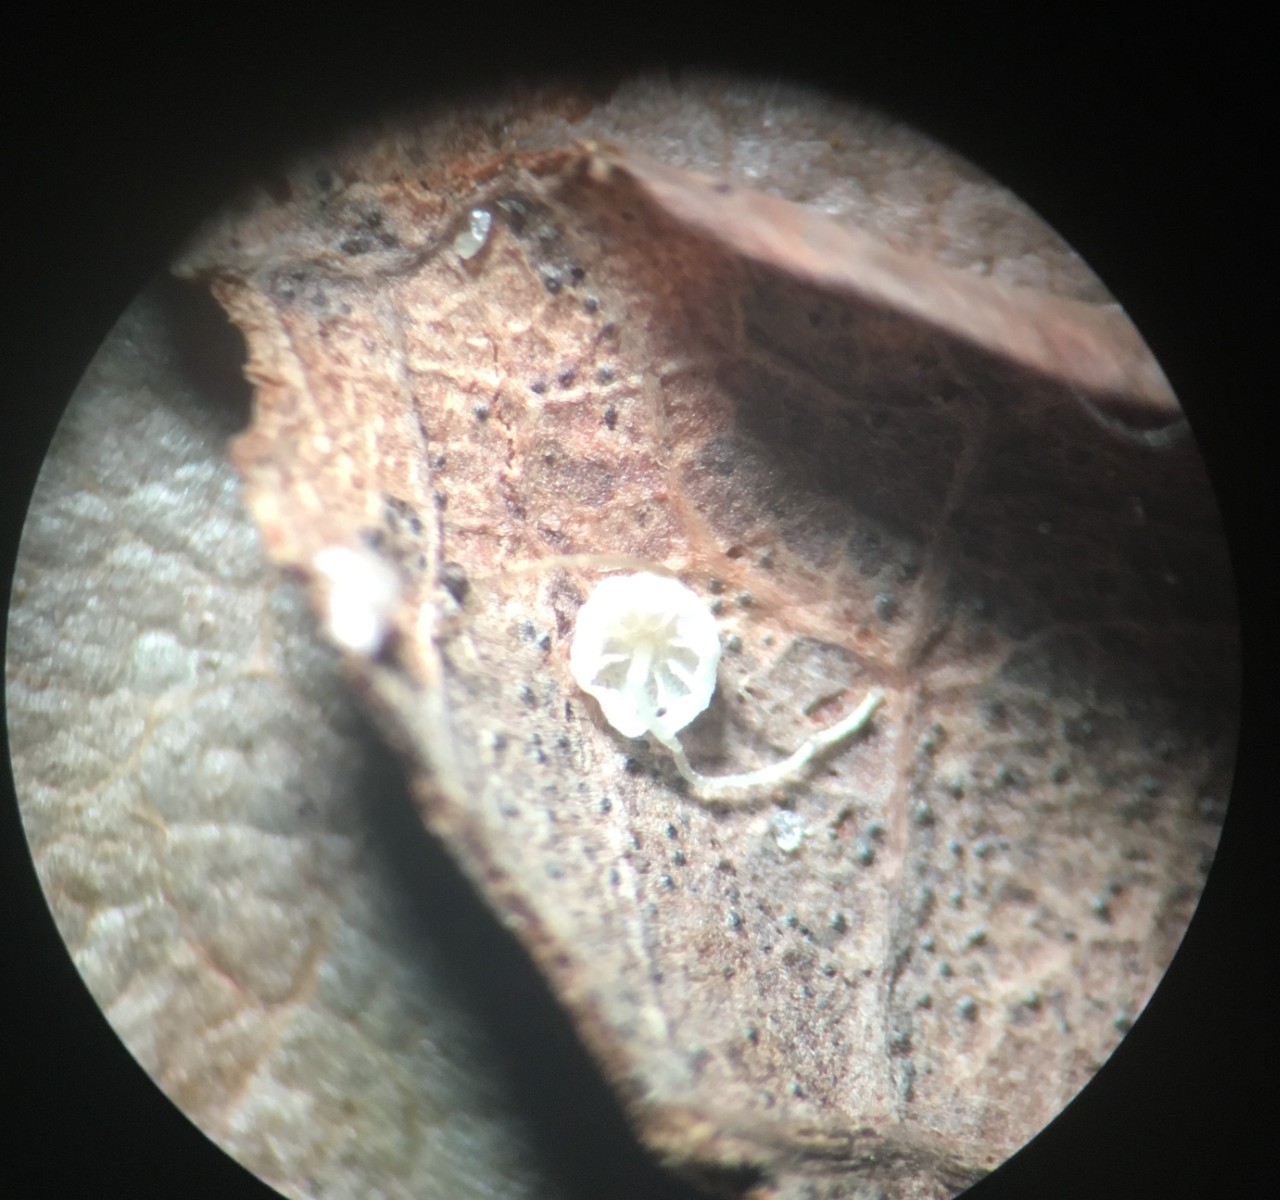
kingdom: Fungi
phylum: Basidiomycota
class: Agaricomycetes
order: Agaricales
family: Mycenaceae
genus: Mycena
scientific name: Mycena mucor
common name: frynseskivet huesvamp
